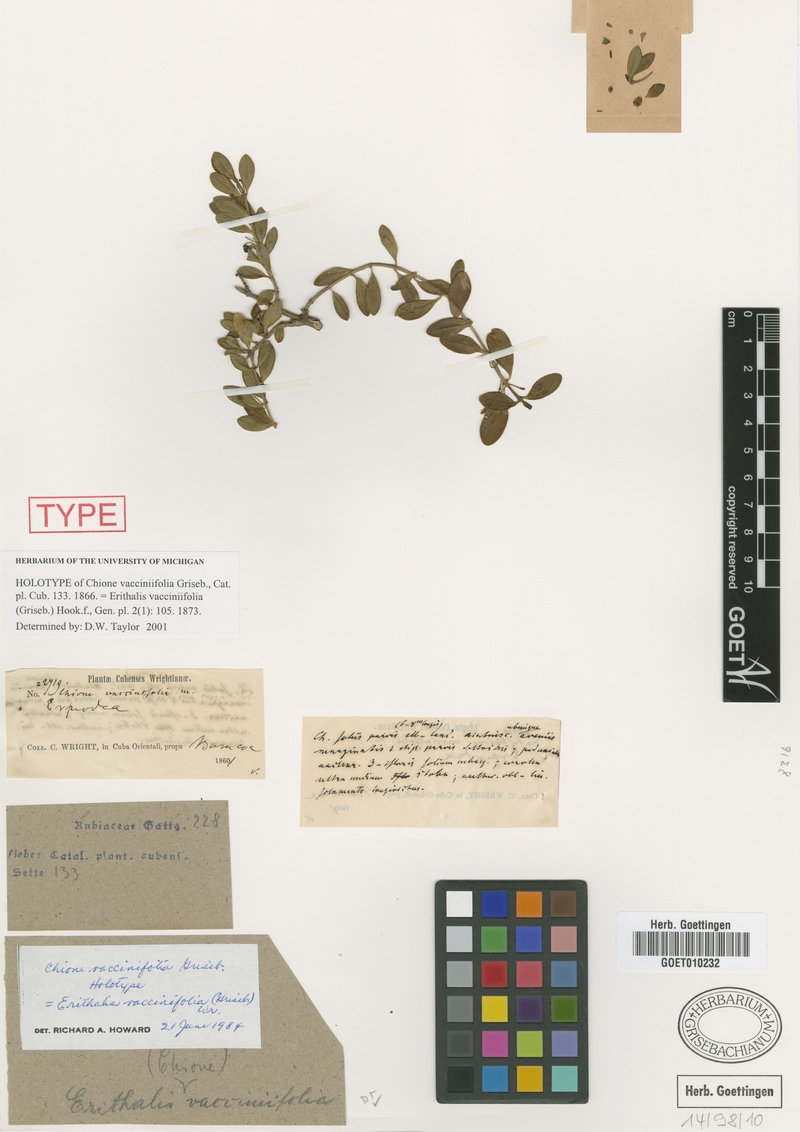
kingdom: Plantae
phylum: Tracheophyta
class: Magnoliopsida
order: Gentianales
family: Rubiaceae
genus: Erithalis
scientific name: Erithalis vacciniifolia
